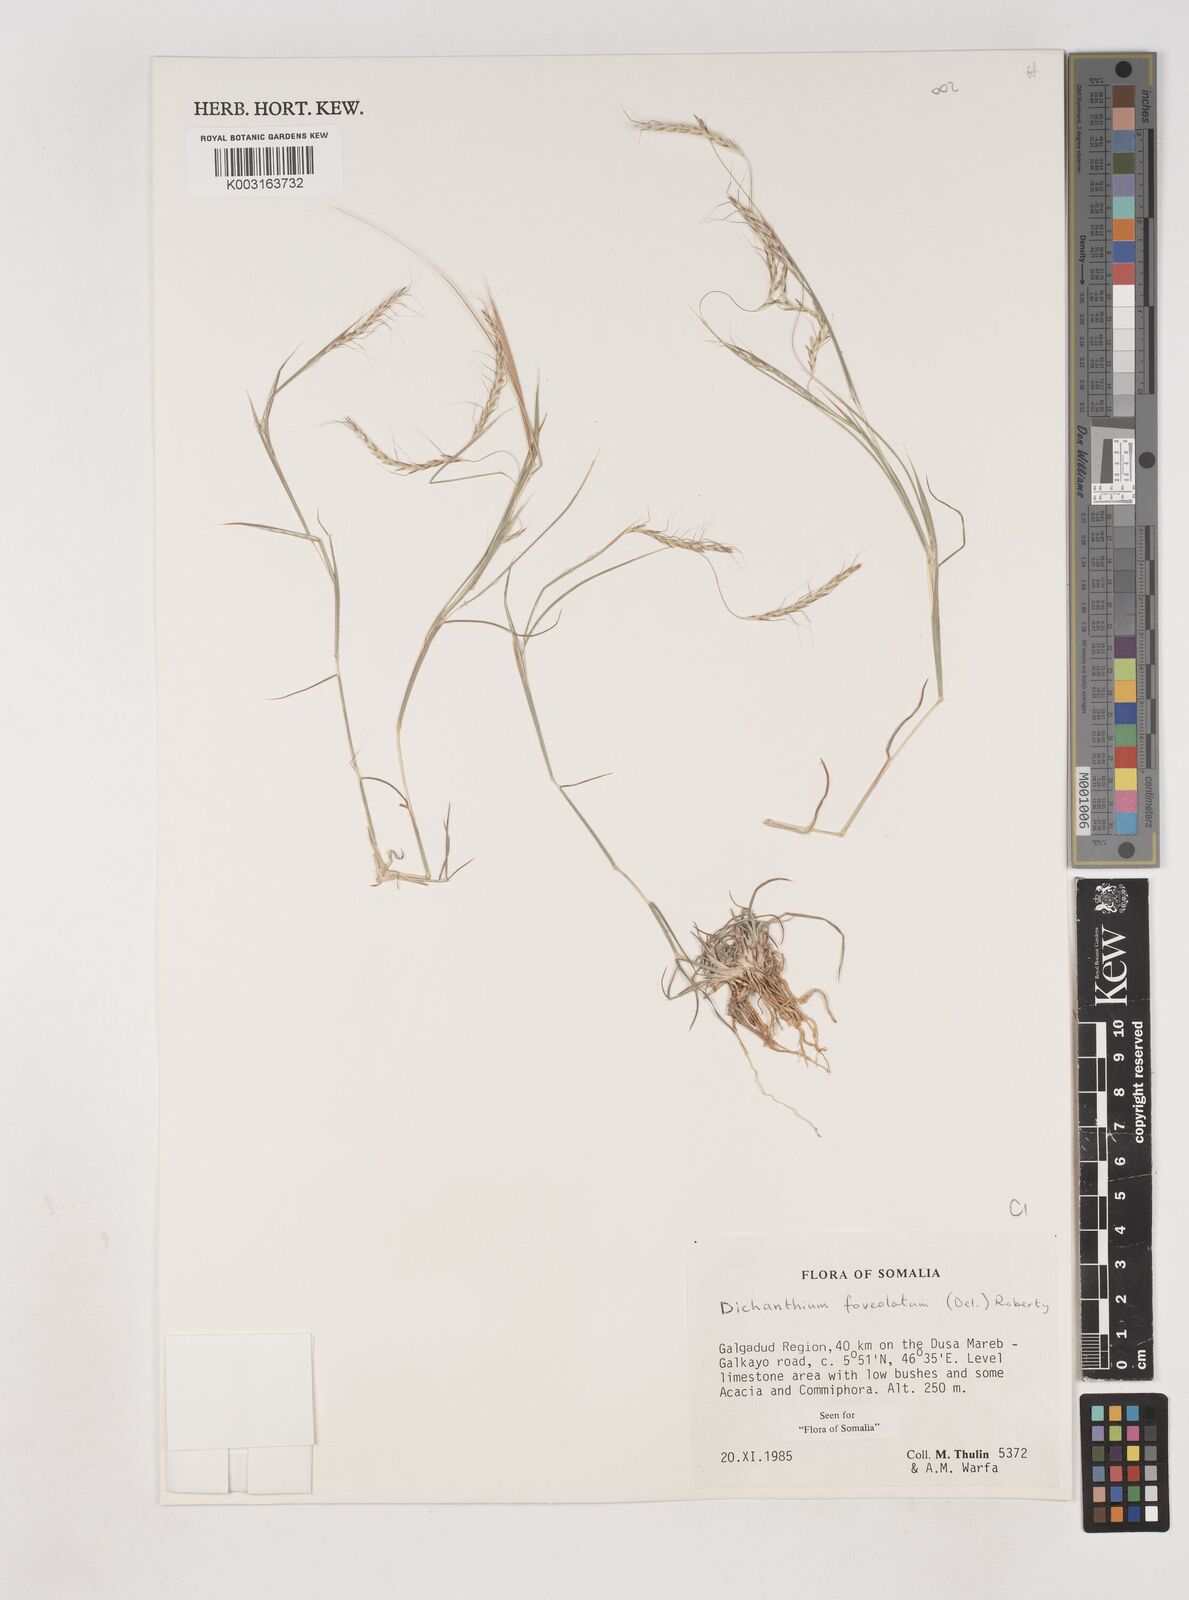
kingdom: Plantae
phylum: Tracheophyta
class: Liliopsida
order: Poales
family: Poaceae
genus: Dichanthium
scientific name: Dichanthium foveolatum
